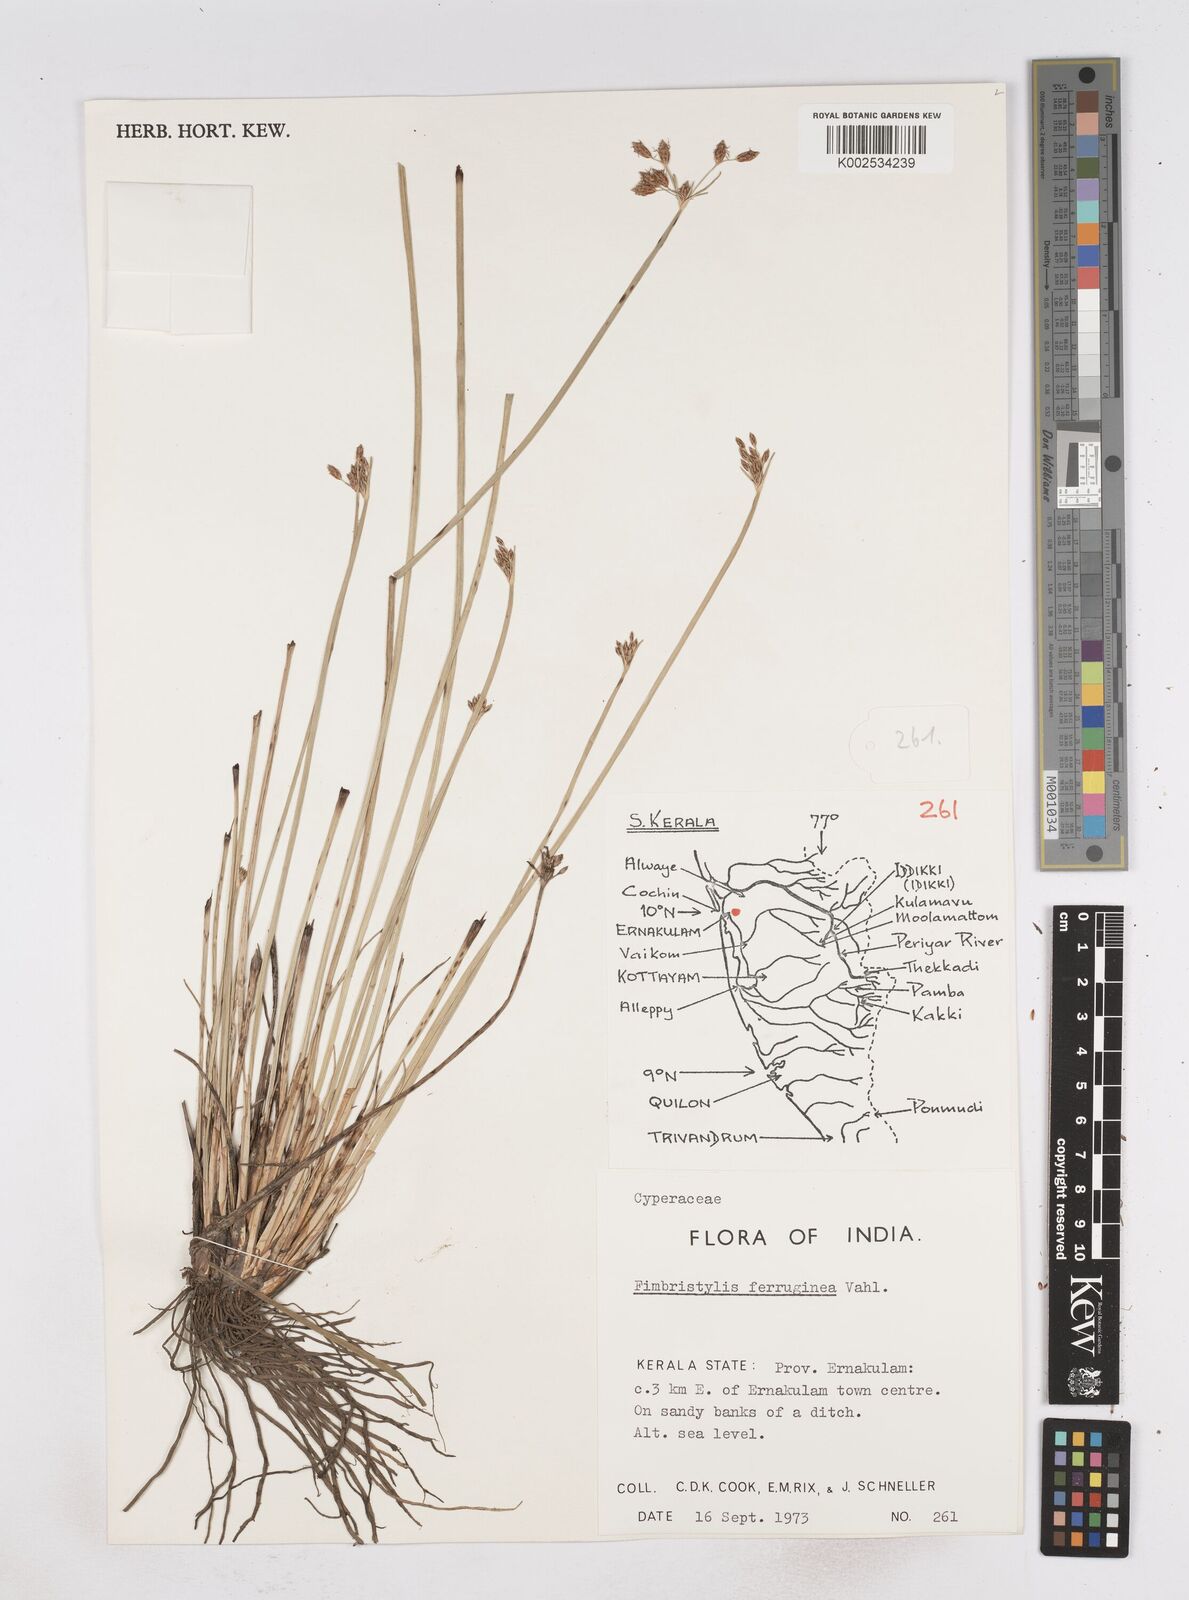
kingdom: Plantae
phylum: Tracheophyta
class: Liliopsida
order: Poales
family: Cyperaceae
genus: Fimbristylis
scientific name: Fimbristylis ferruginea
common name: West indian fimbry
